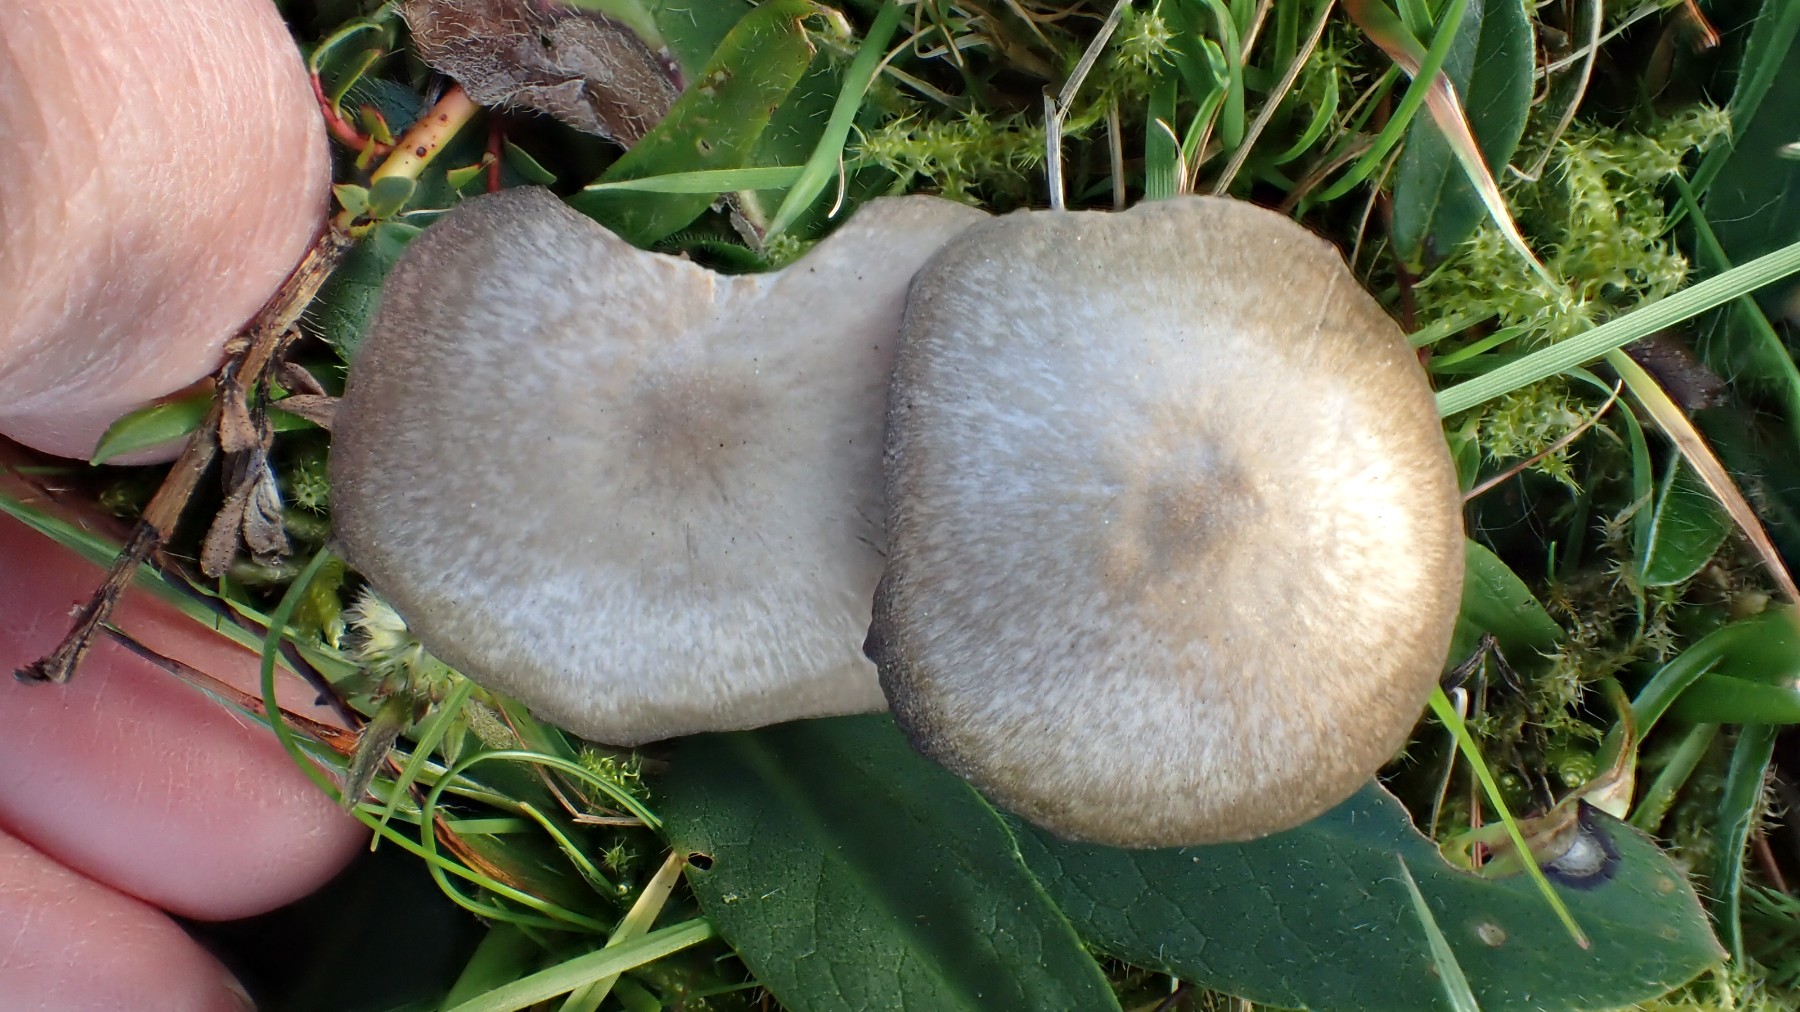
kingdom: Fungi
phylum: Basidiomycota
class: Agaricomycetes
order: Agaricales
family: Entolomataceae
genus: Entoloma
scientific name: Entoloma
